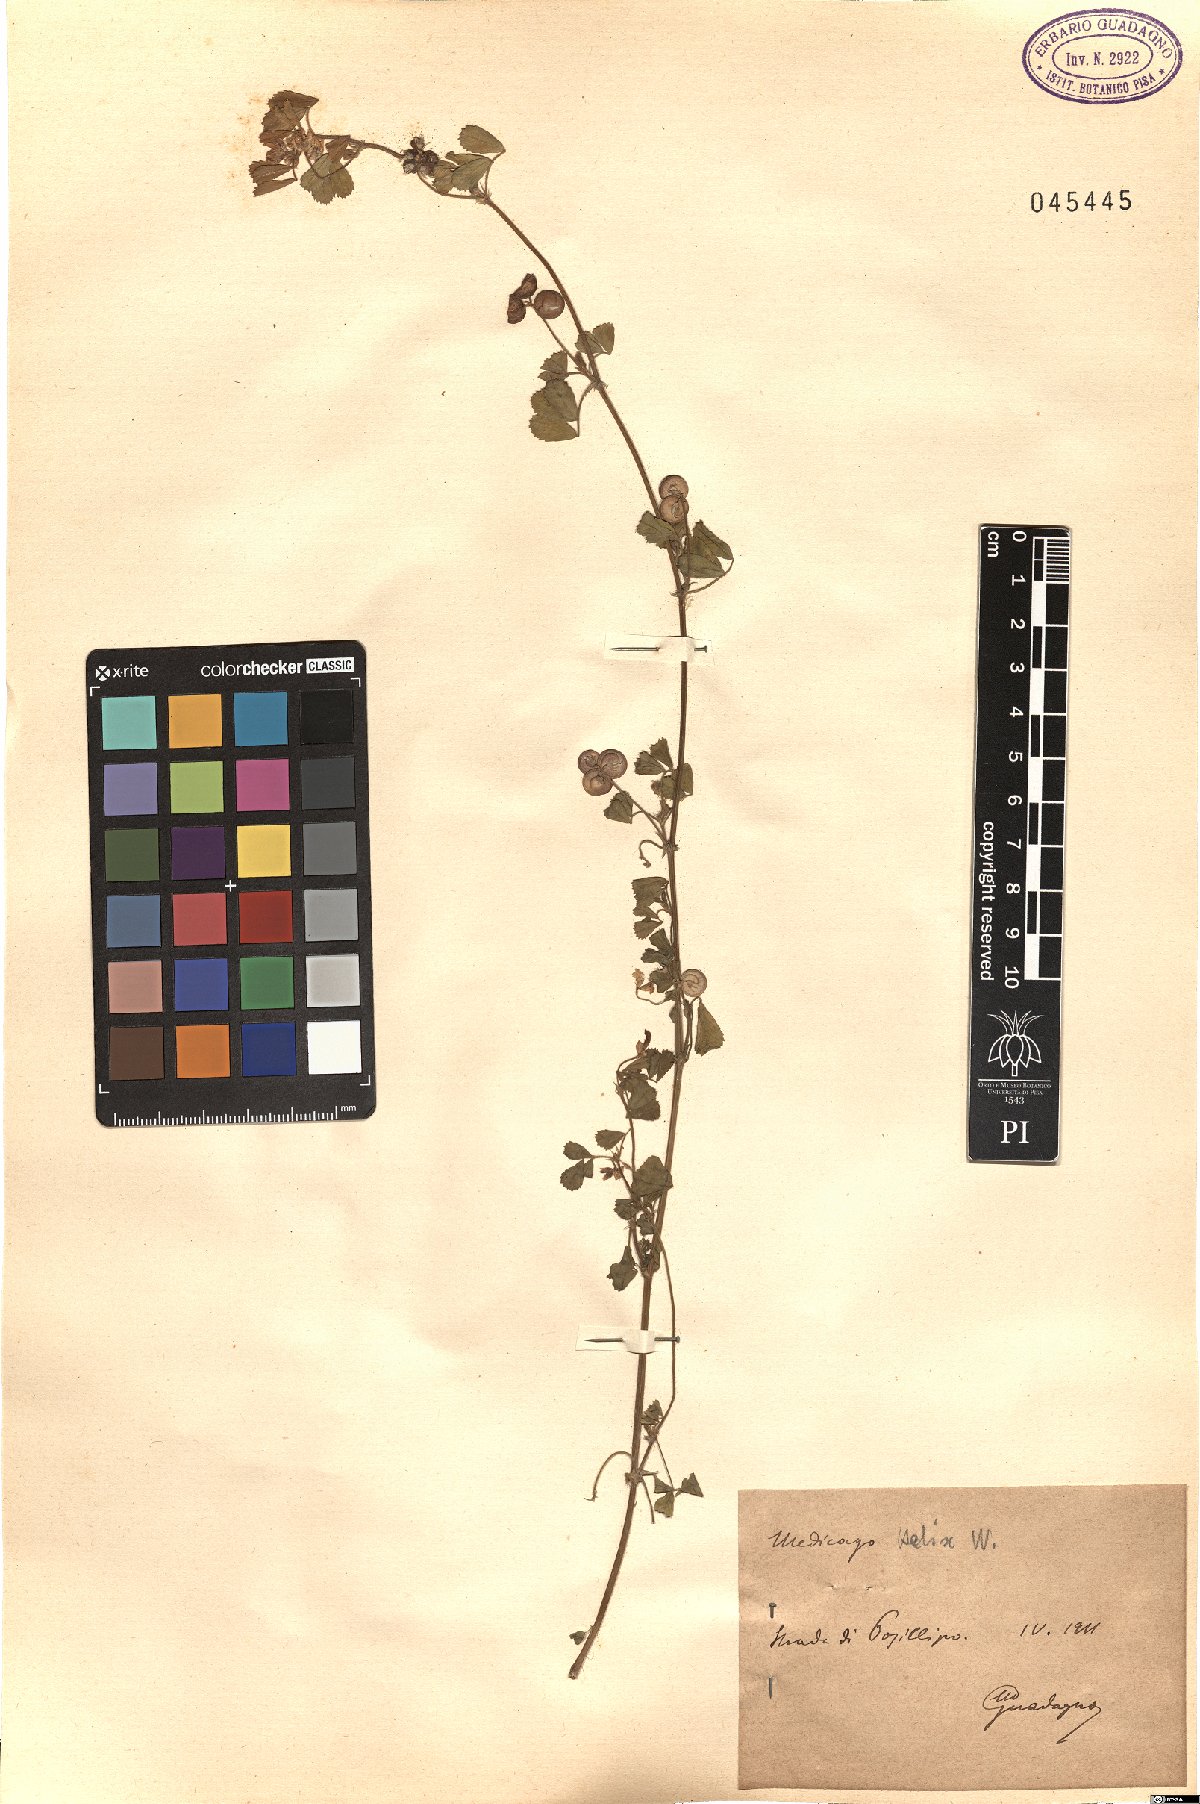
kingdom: Plantae
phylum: Tracheophyta
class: Magnoliopsida
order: Fabales
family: Fabaceae
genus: Medicago
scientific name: Medicago
